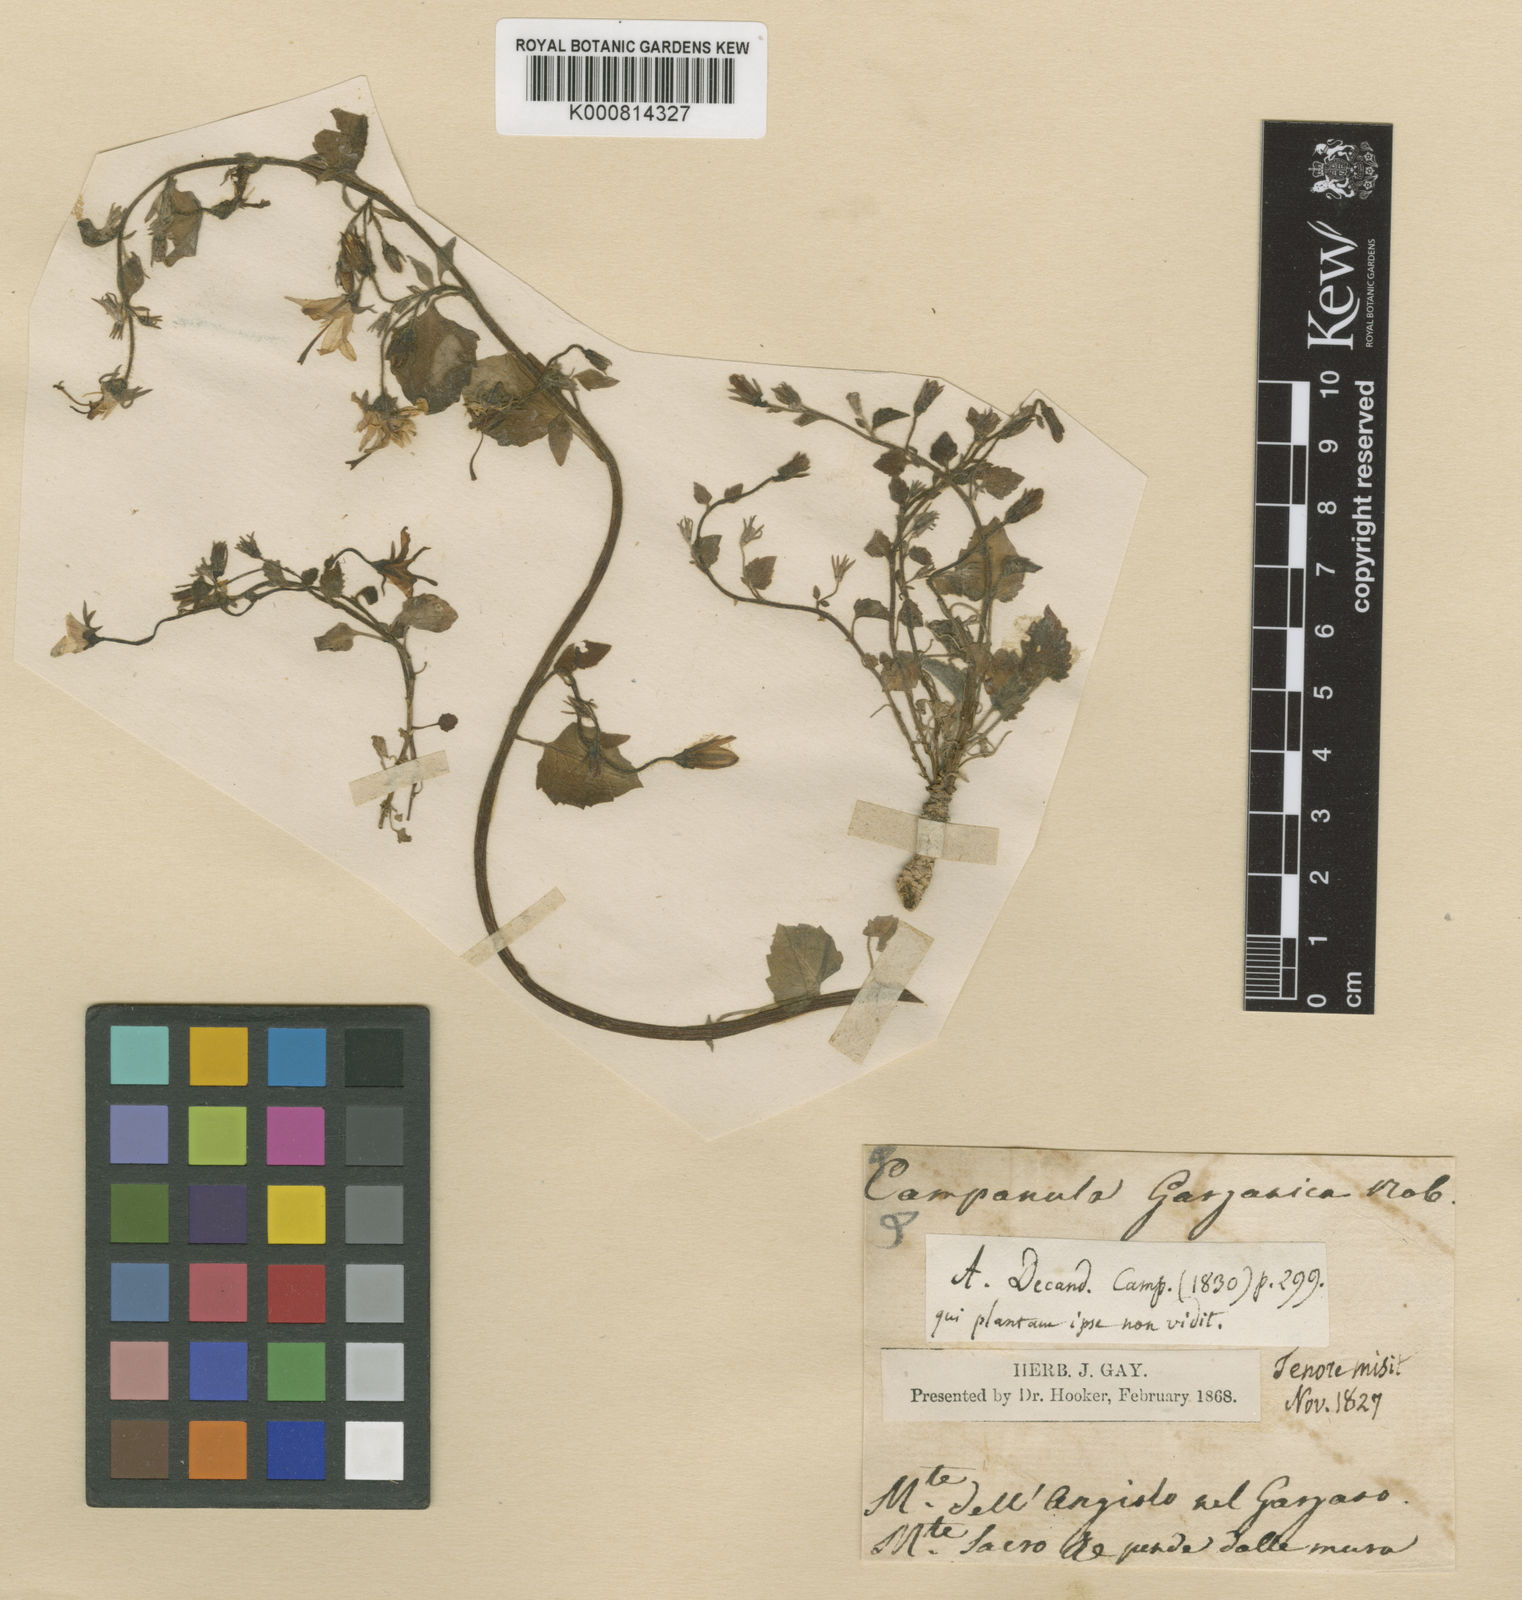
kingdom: Plantae
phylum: Tracheophyta
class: Magnoliopsida
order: Asterales
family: Campanulaceae
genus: Campanula
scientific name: Campanula garganica
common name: Adriatic bellflower
